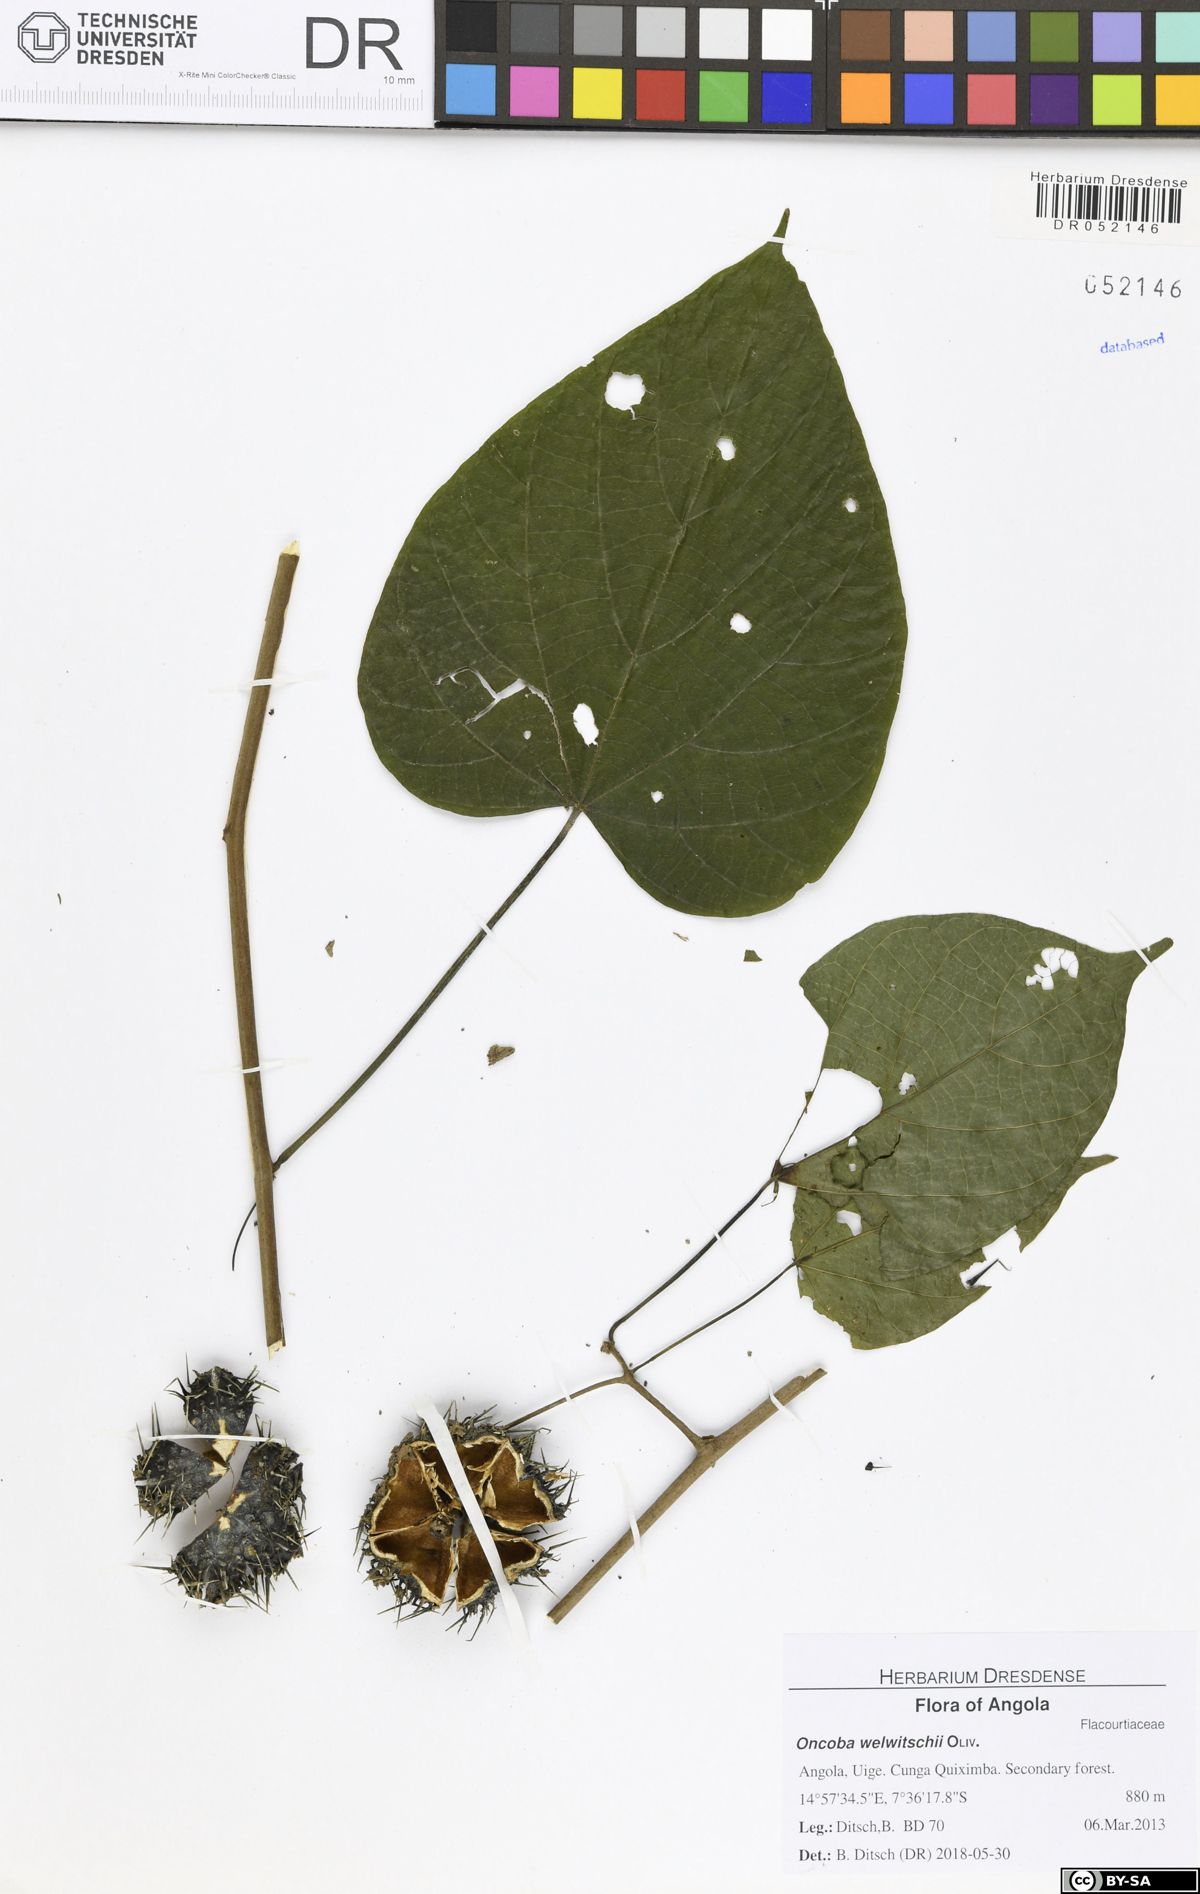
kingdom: Plantae
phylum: Tracheophyta
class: Magnoliopsida
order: Malpighiales
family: Achariaceae
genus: Caloncoba
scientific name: Caloncoba welwitschii
